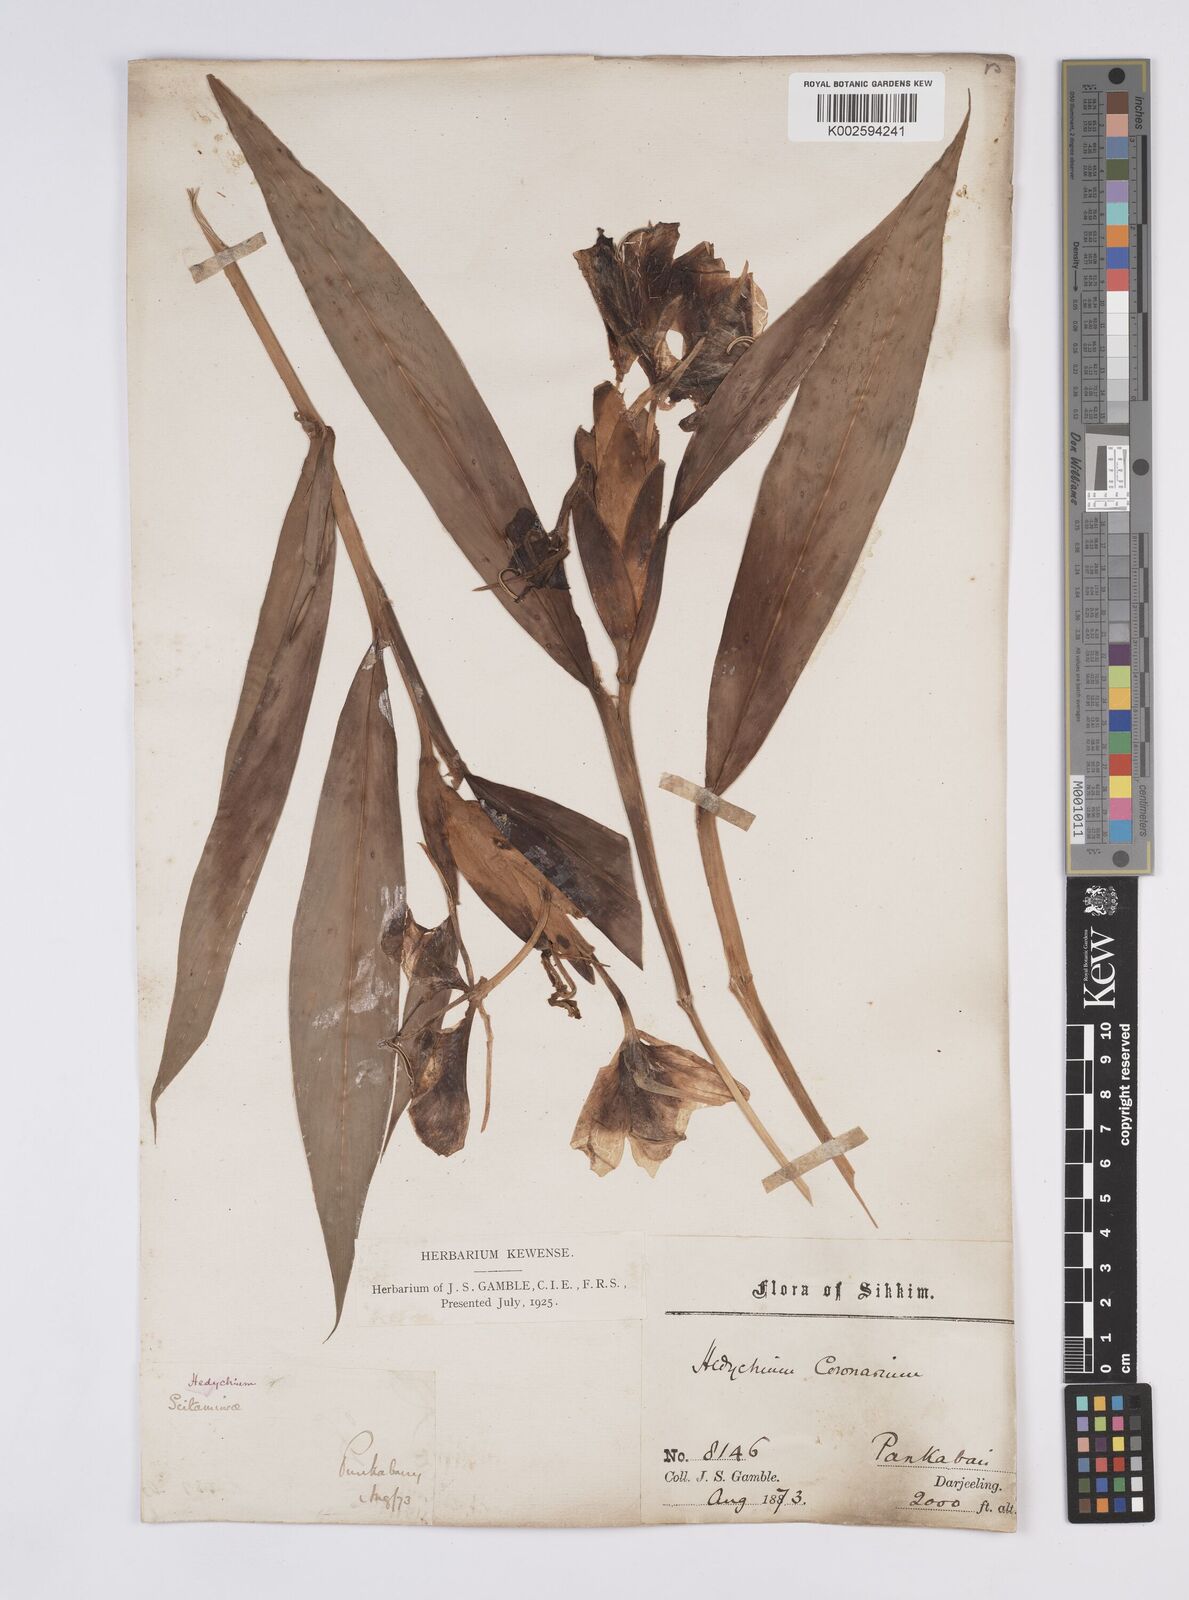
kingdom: Plantae
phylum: Tracheophyta
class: Liliopsida
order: Zingiberales
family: Zingiberaceae
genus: Hedychium
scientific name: Hedychium coronarium
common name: White garland-lily
